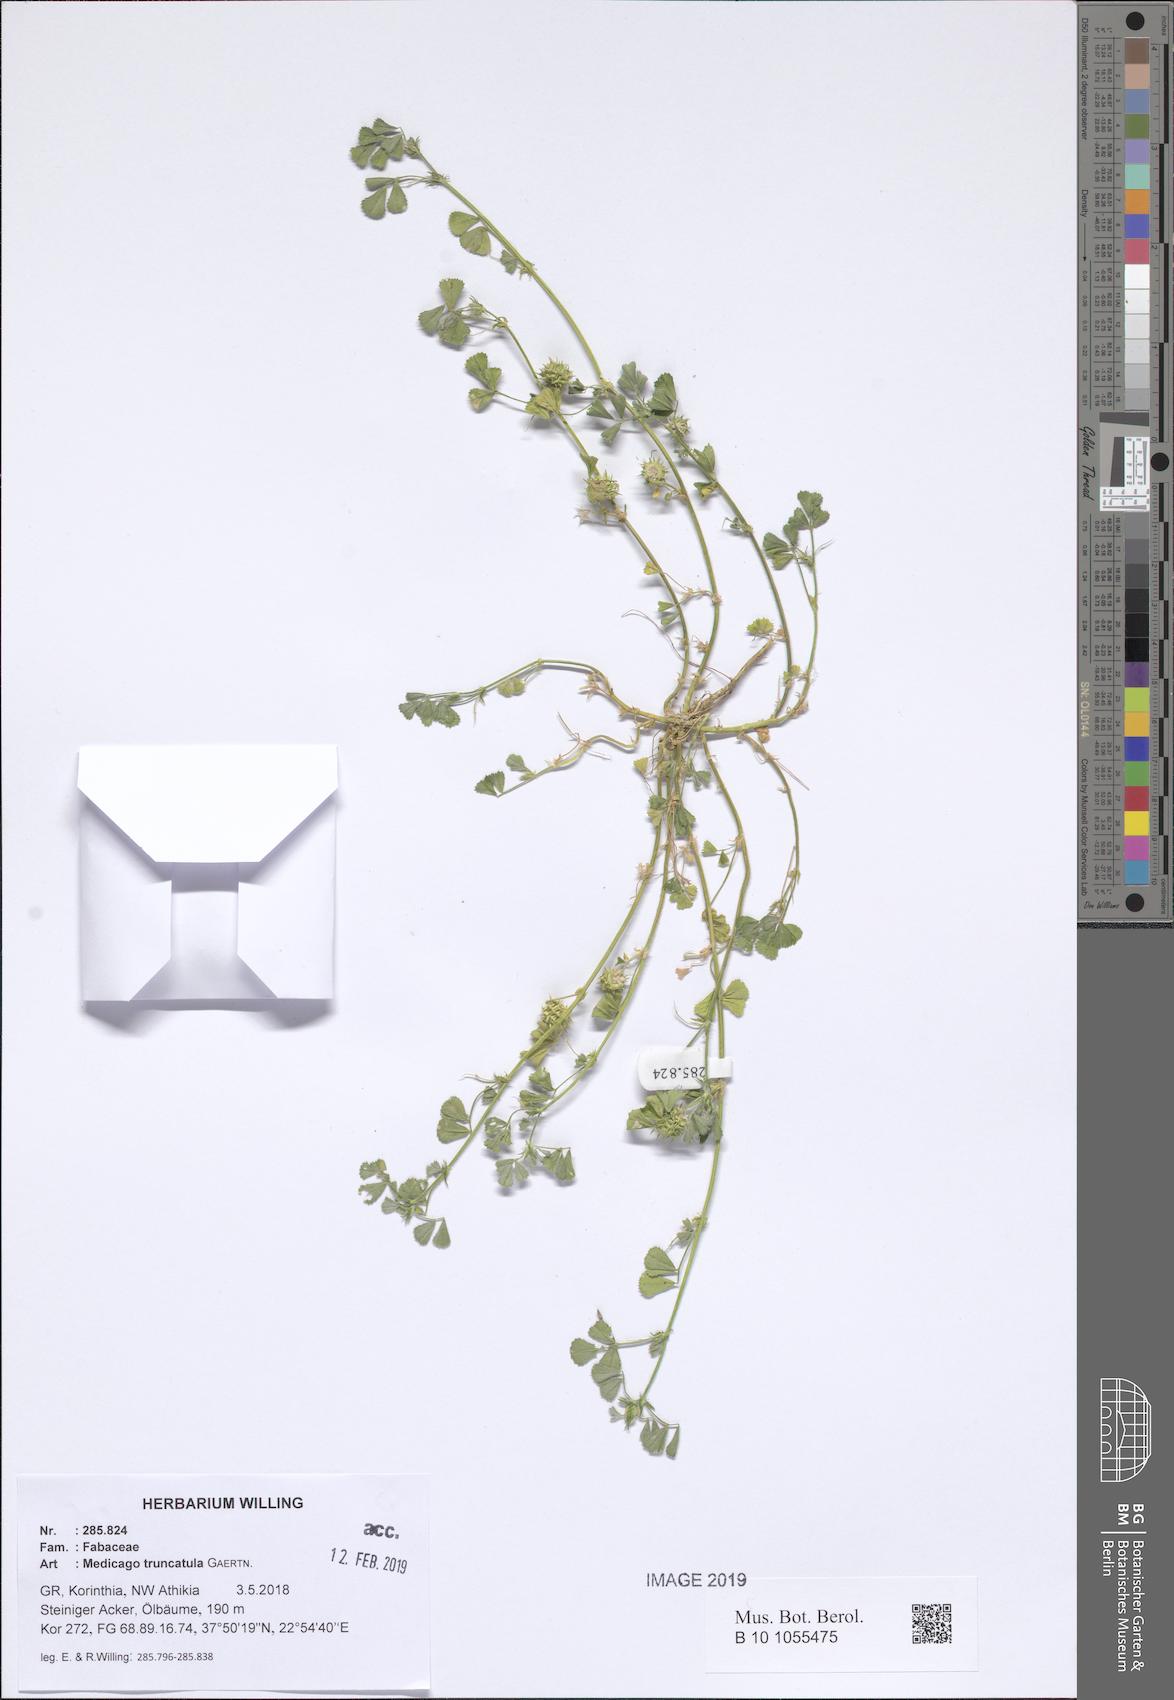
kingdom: Plantae
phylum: Tracheophyta
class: Magnoliopsida
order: Fabales
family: Fabaceae
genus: Medicago
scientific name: Medicago truncatula
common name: Strong-spined medick
